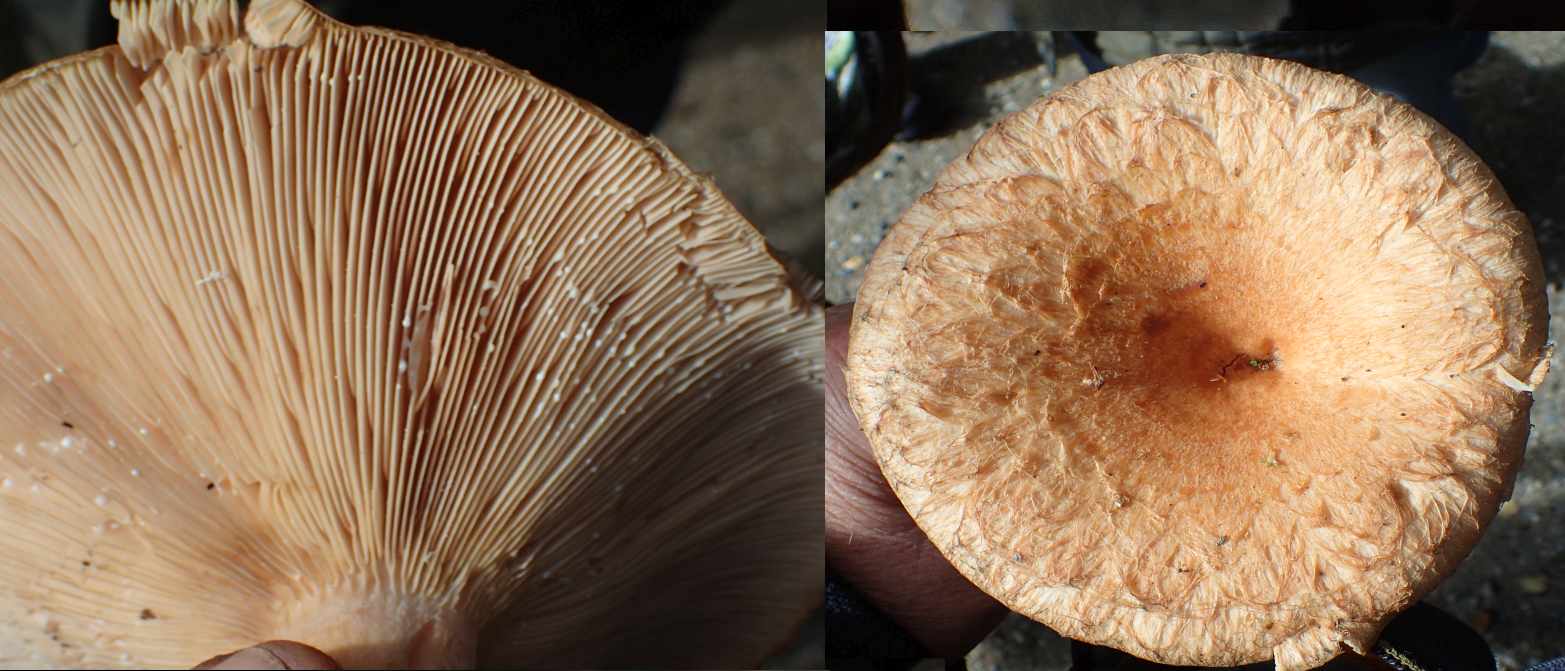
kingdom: Fungi
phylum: Basidiomycota
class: Agaricomycetes
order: Russulales
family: Russulaceae
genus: Lactarius
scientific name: Lactarius torminosus
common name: skægget mælkehat
